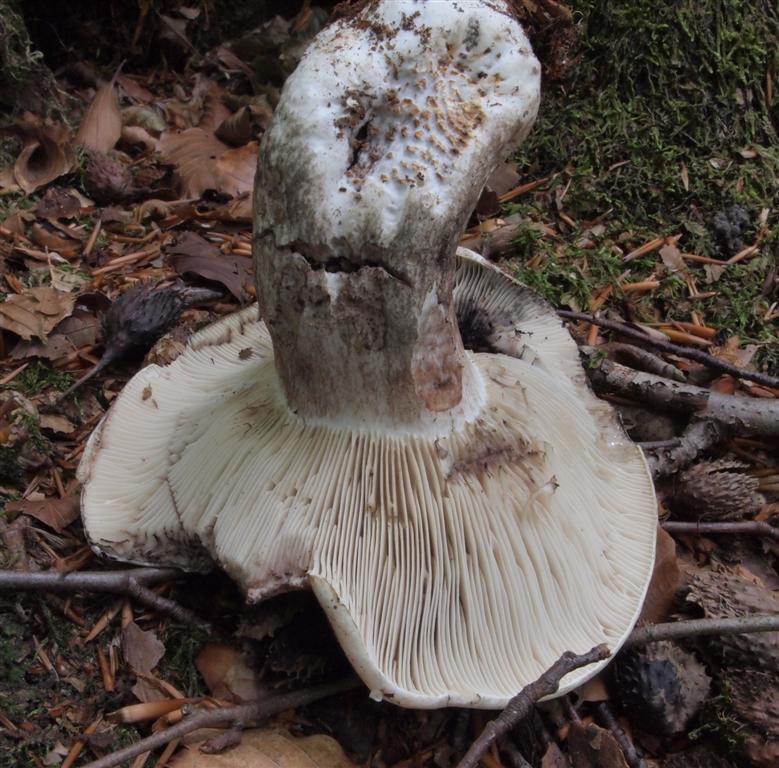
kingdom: Fungi
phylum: Basidiomycota
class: Agaricomycetes
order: Russulales
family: Russulaceae
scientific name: Russulaceae
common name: skørhatfamilien
